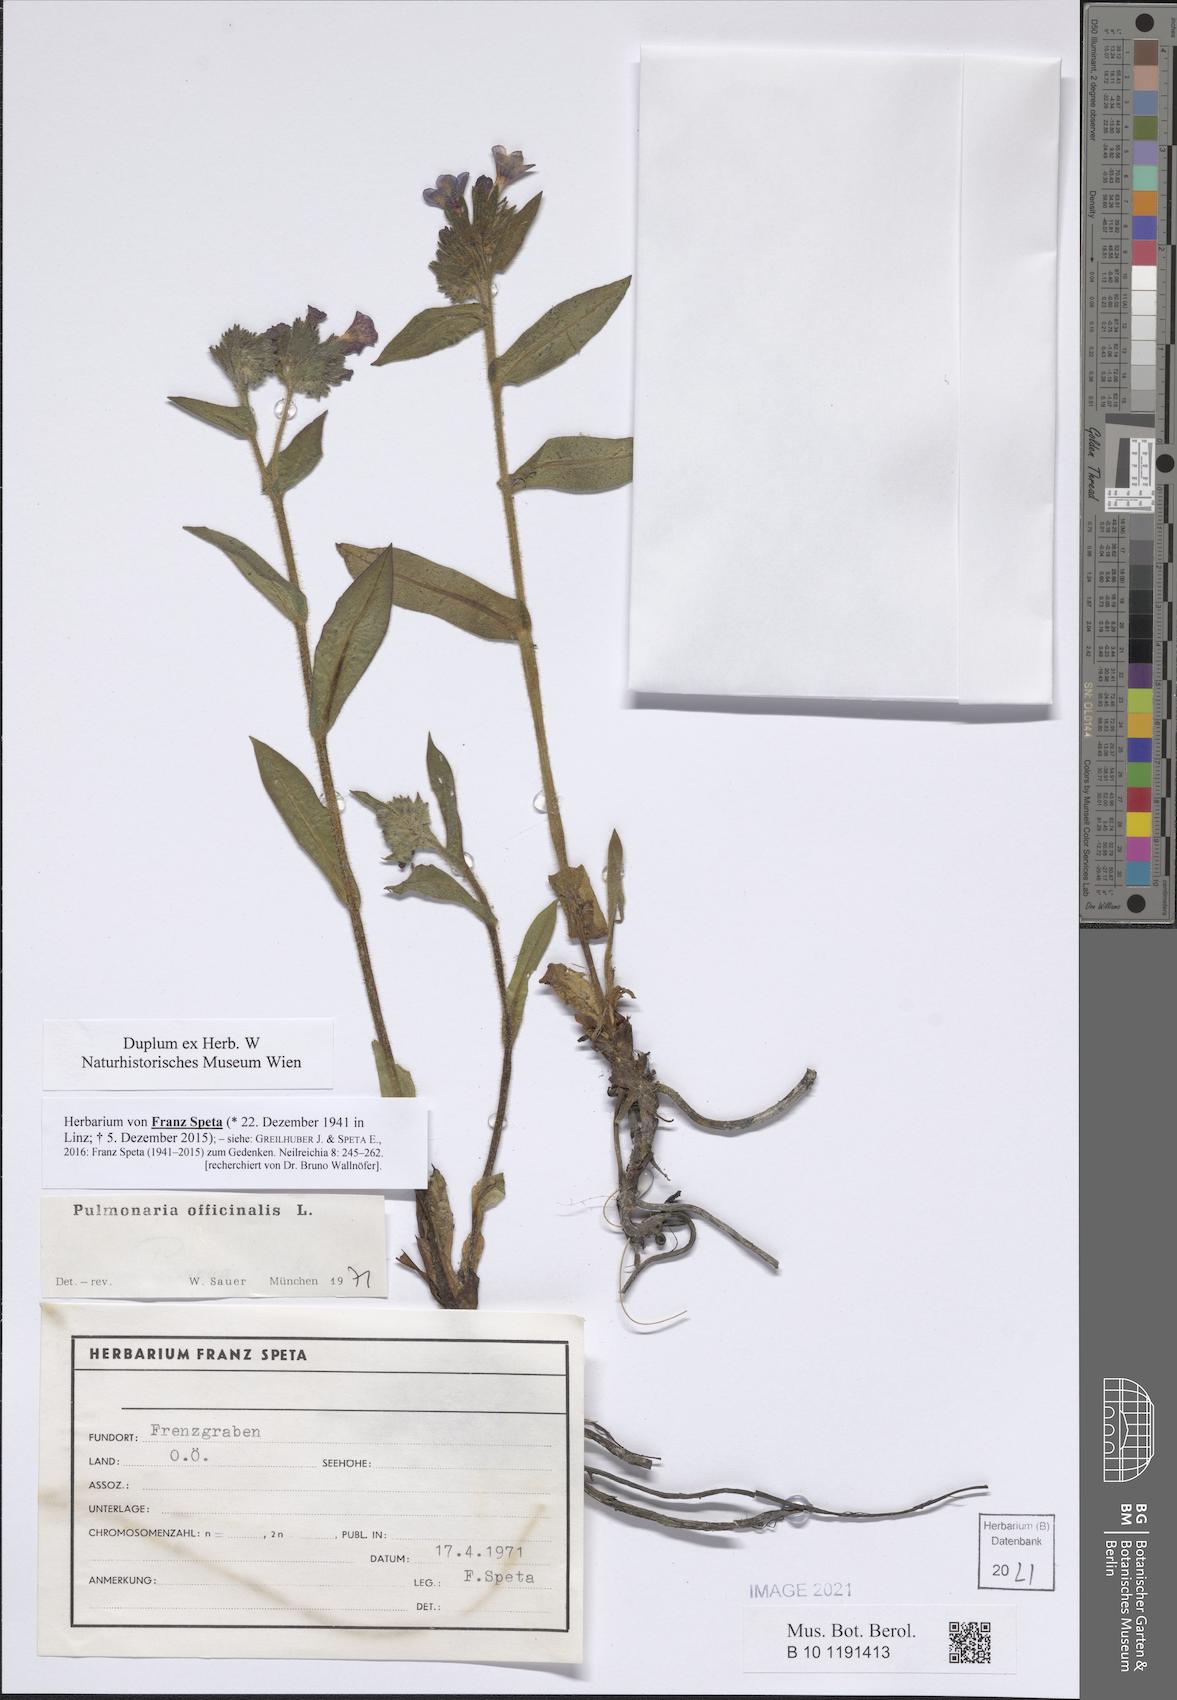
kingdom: Plantae
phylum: Tracheophyta
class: Magnoliopsida
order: Boraginales
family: Boraginaceae
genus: Pulmonaria
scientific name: Pulmonaria officinalis
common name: Lungwort
